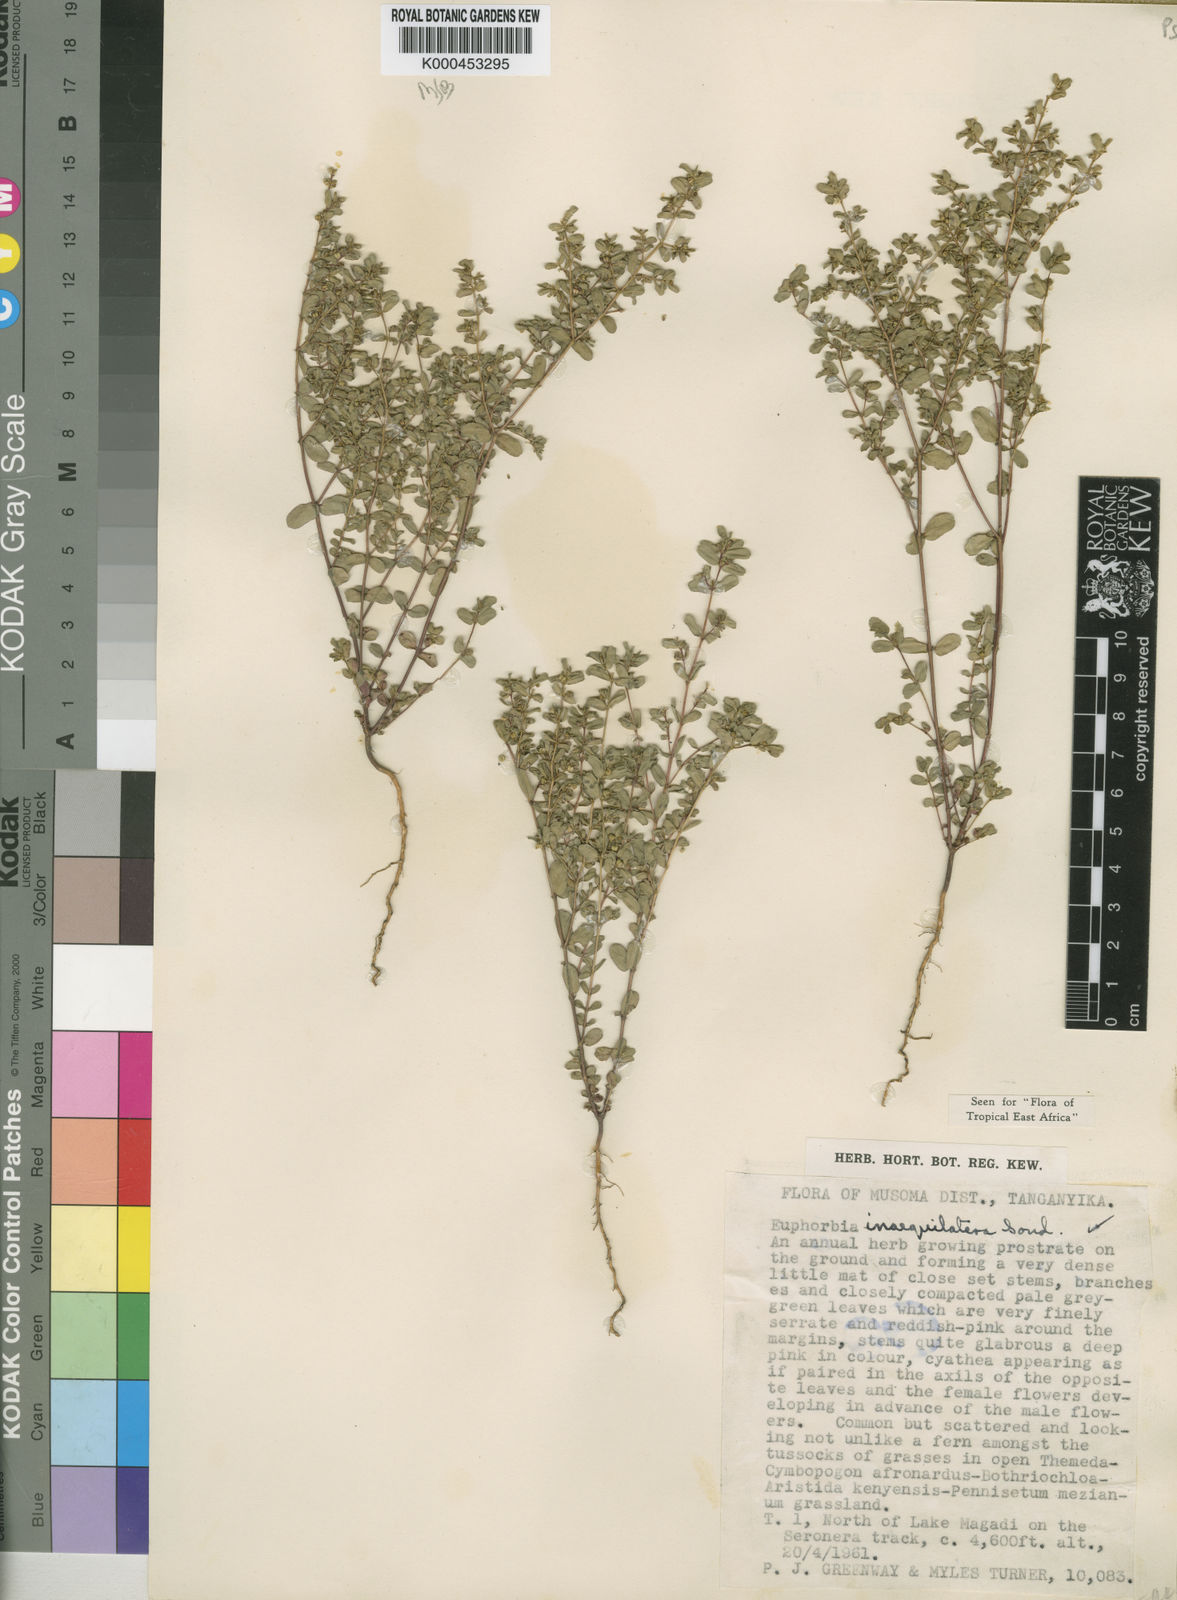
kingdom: Plantae
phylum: Tracheophyta
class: Magnoliopsida
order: Malpighiales
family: Euphorbiaceae
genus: Euphorbia
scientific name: Euphorbia inaequilatera
